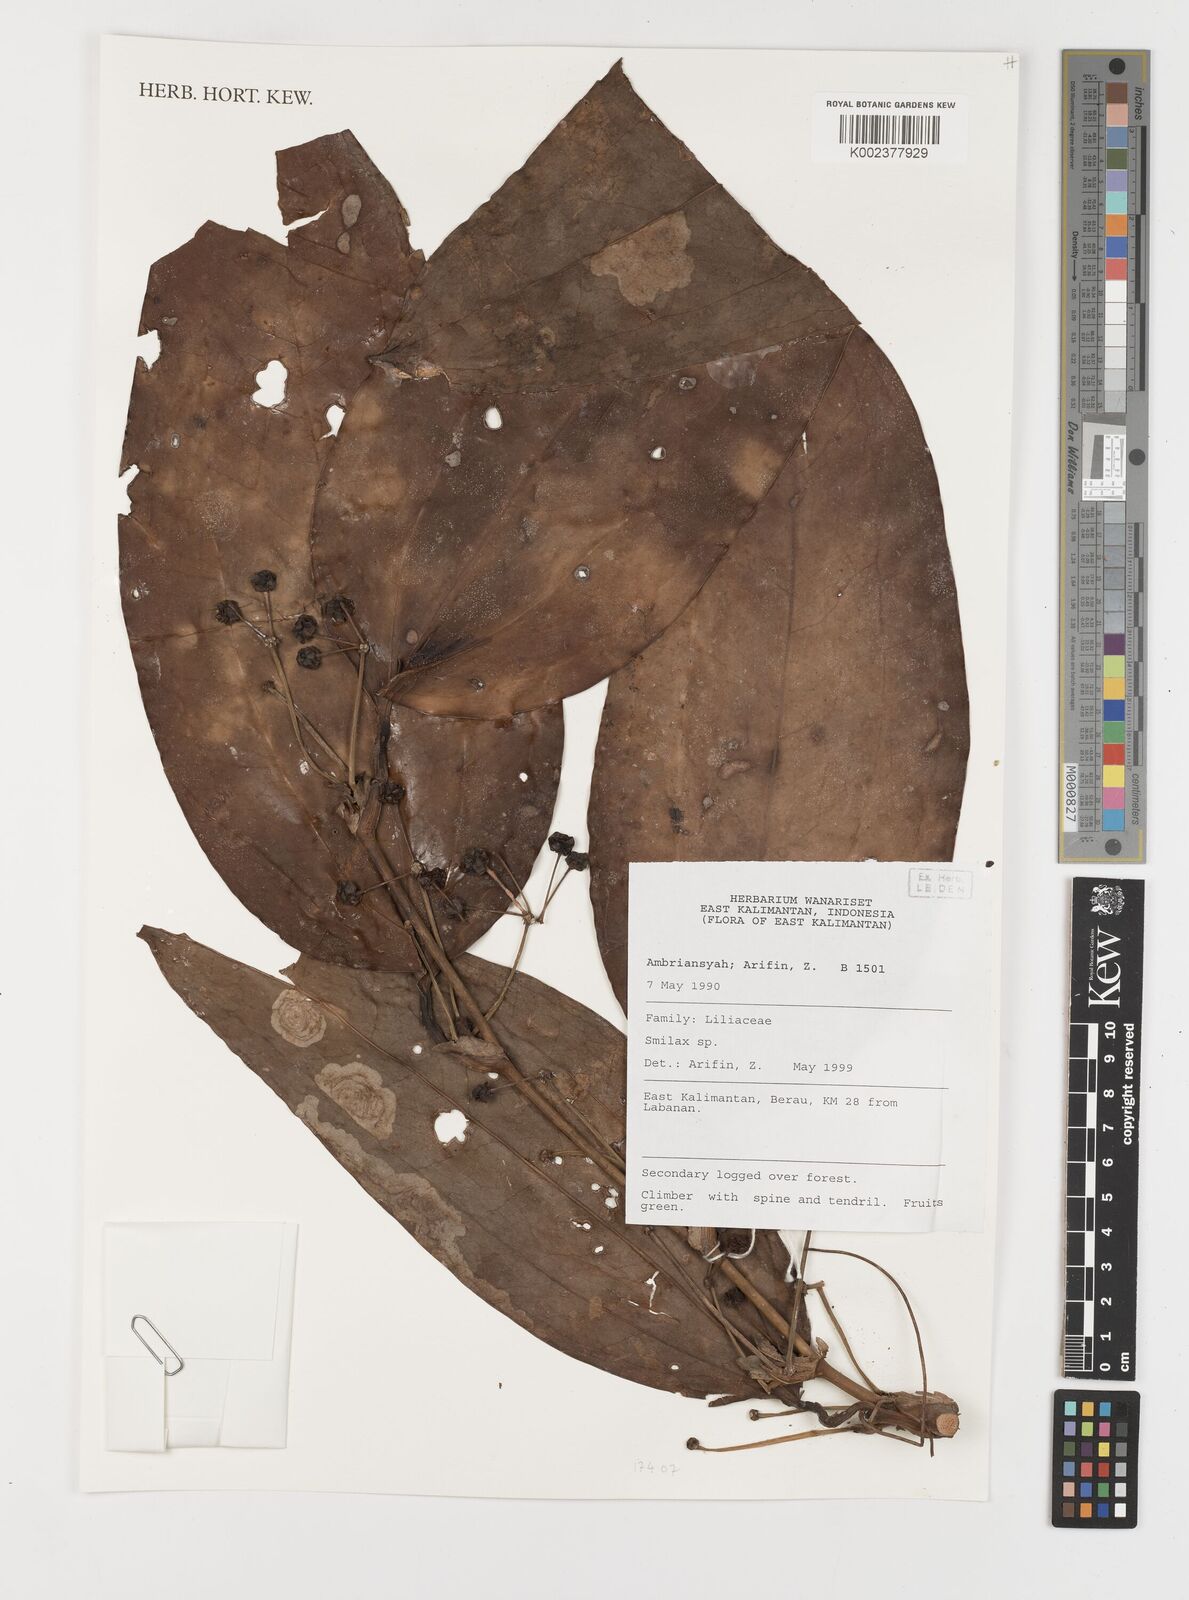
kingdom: Plantae
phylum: Tracheophyta
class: Liliopsida
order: Liliales
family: Smilacaceae
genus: Smilax
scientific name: Smilax
